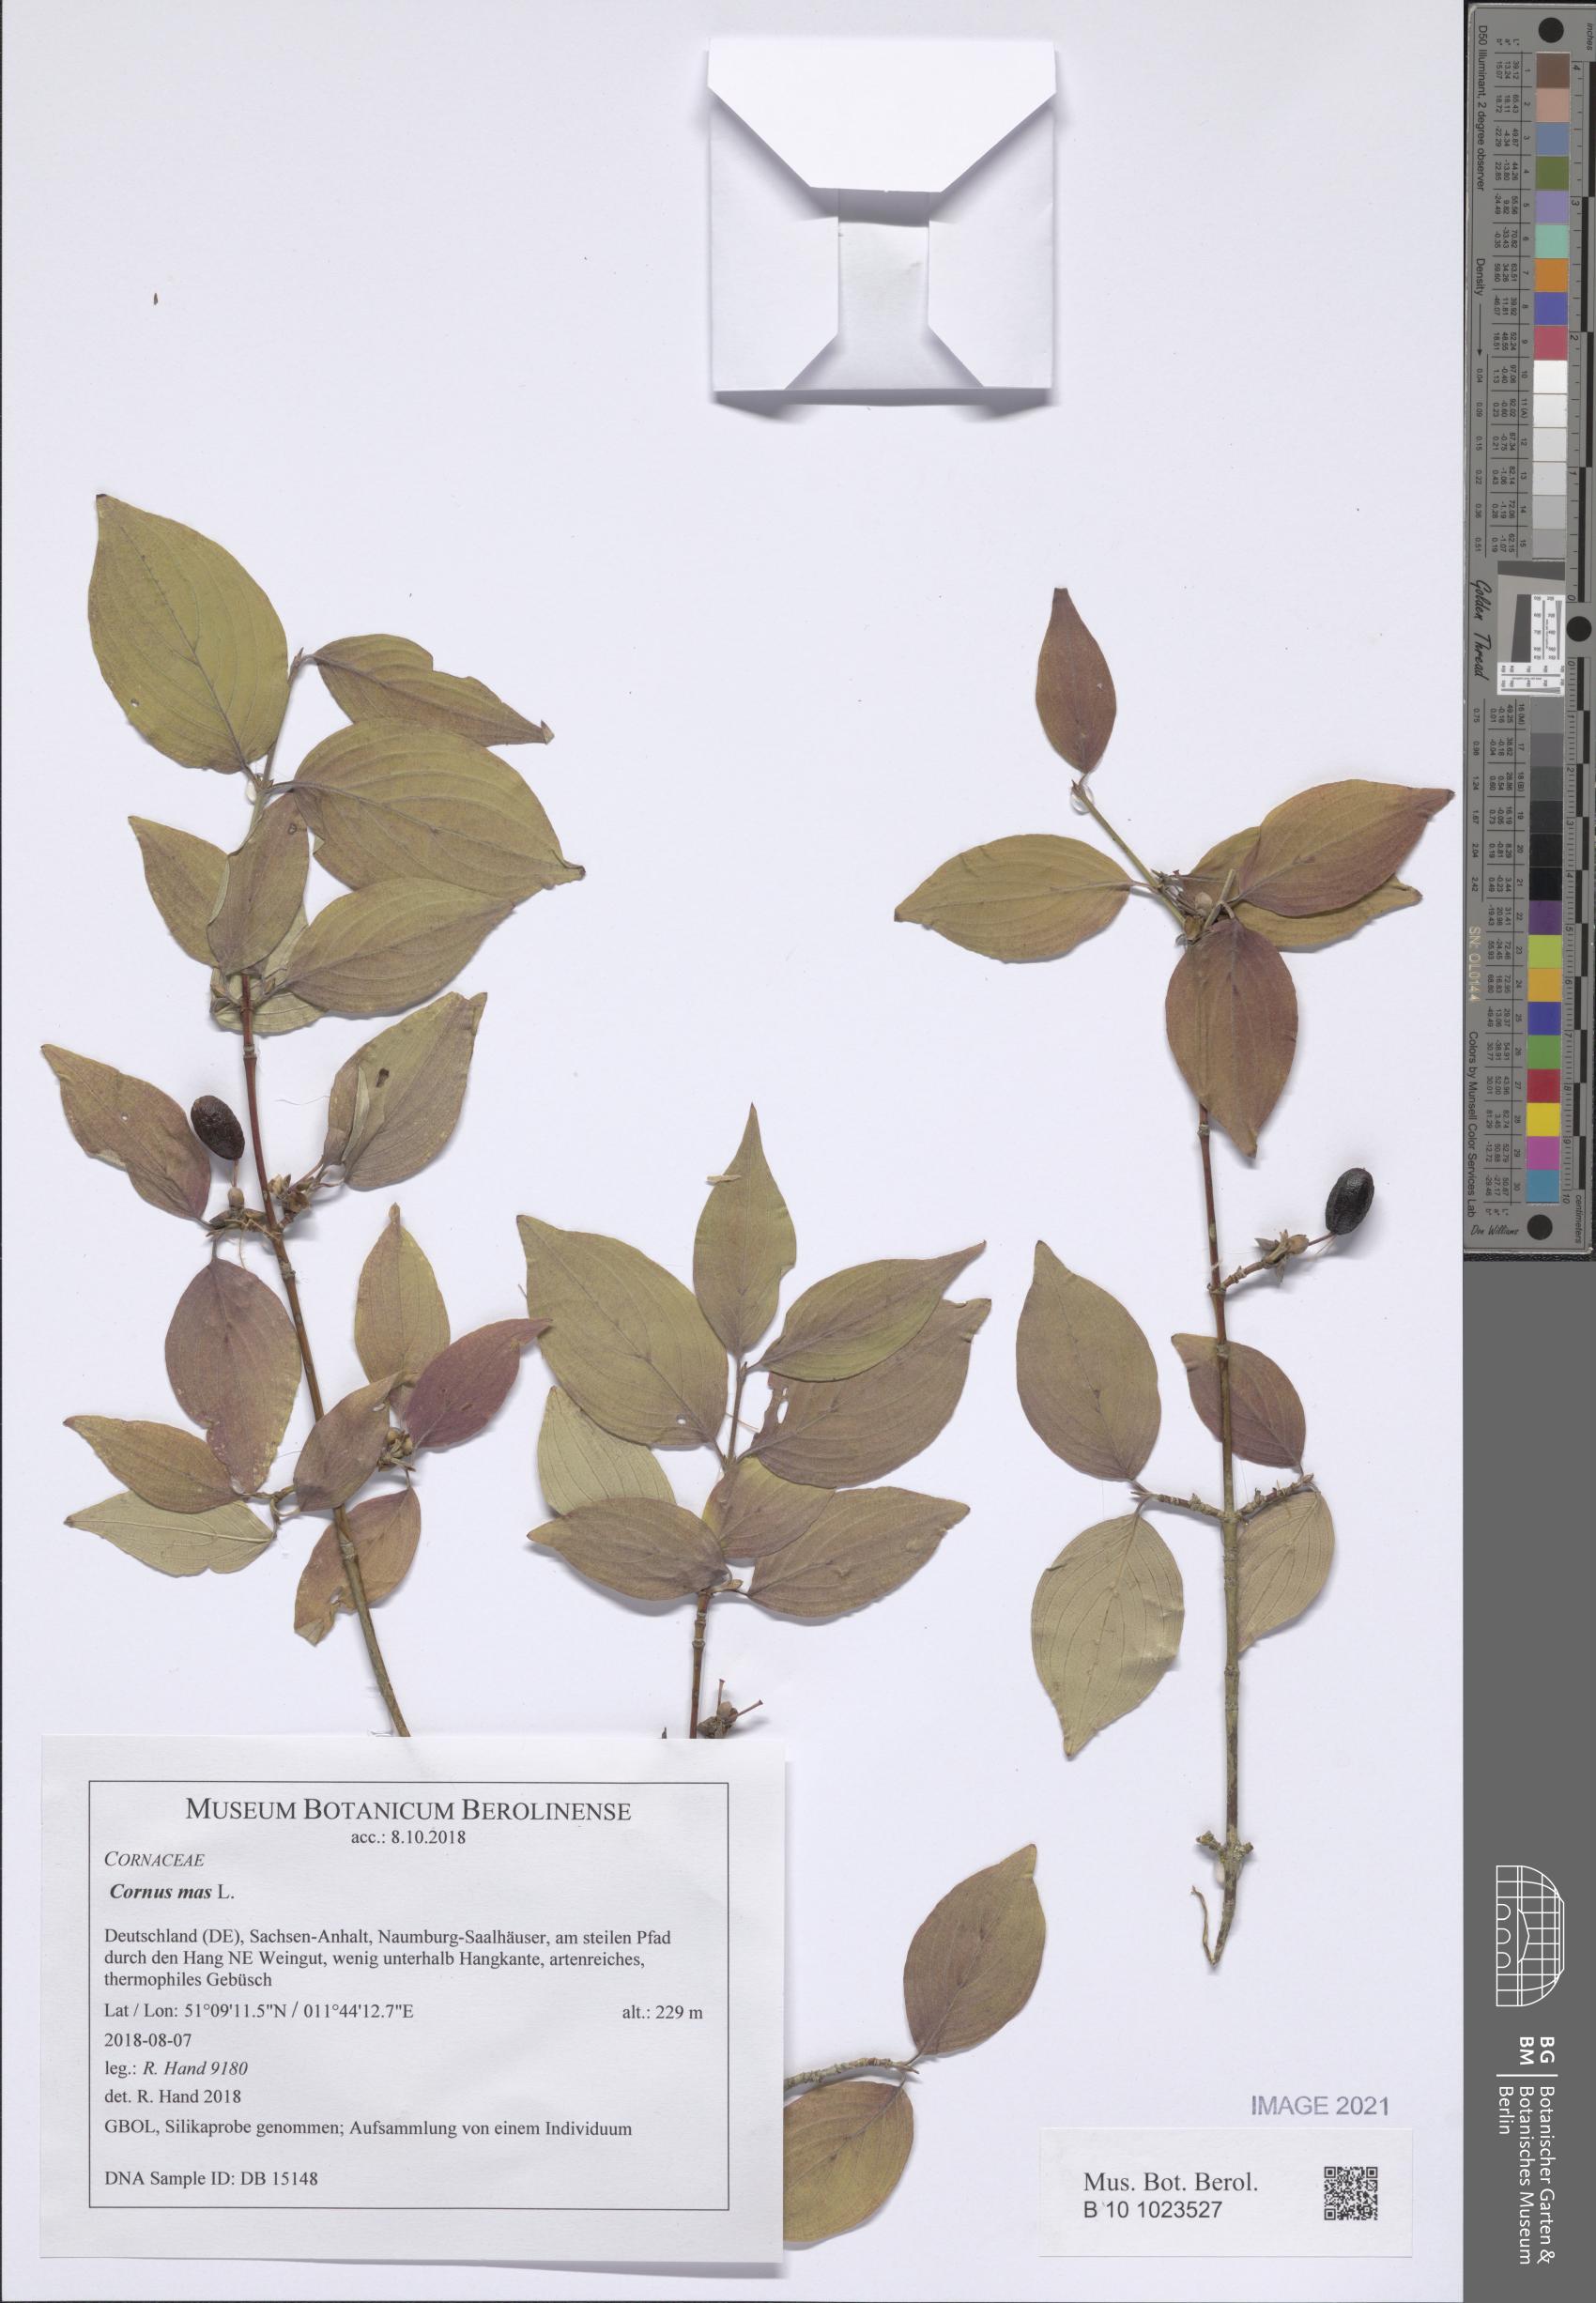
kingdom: Plantae
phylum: Tracheophyta
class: Magnoliopsida
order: Cornales
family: Cornaceae
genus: Cornus
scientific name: Cornus mas
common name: Cornelian-cherry
